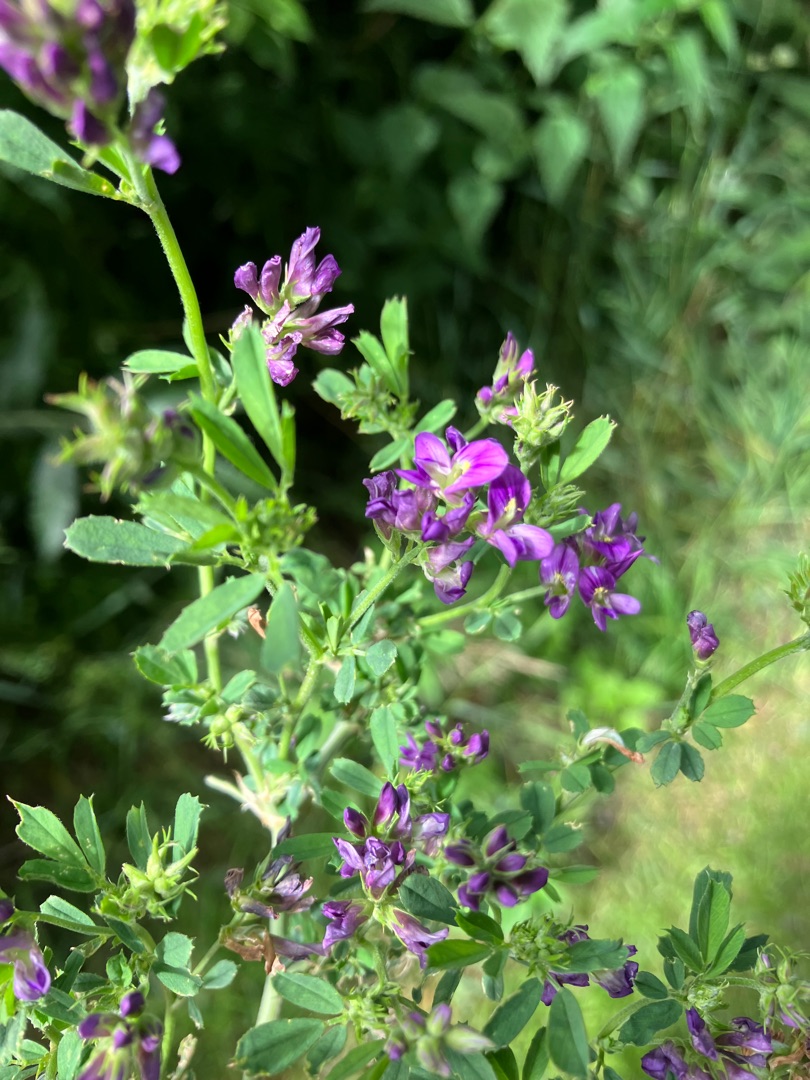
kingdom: Plantae
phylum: Tracheophyta
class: Magnoliopsida
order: Fabales
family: Fabaceae
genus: Medicago
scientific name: Medicago sativa
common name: Lucerne
